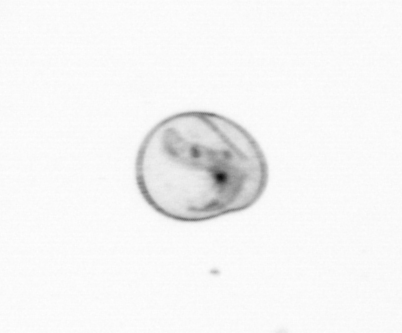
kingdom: Chromista
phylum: Myzozoa
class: Dinophyceae
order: Noctilucales
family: Noctilucaceae
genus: Noctiluca
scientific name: Noctiluca scintillans
